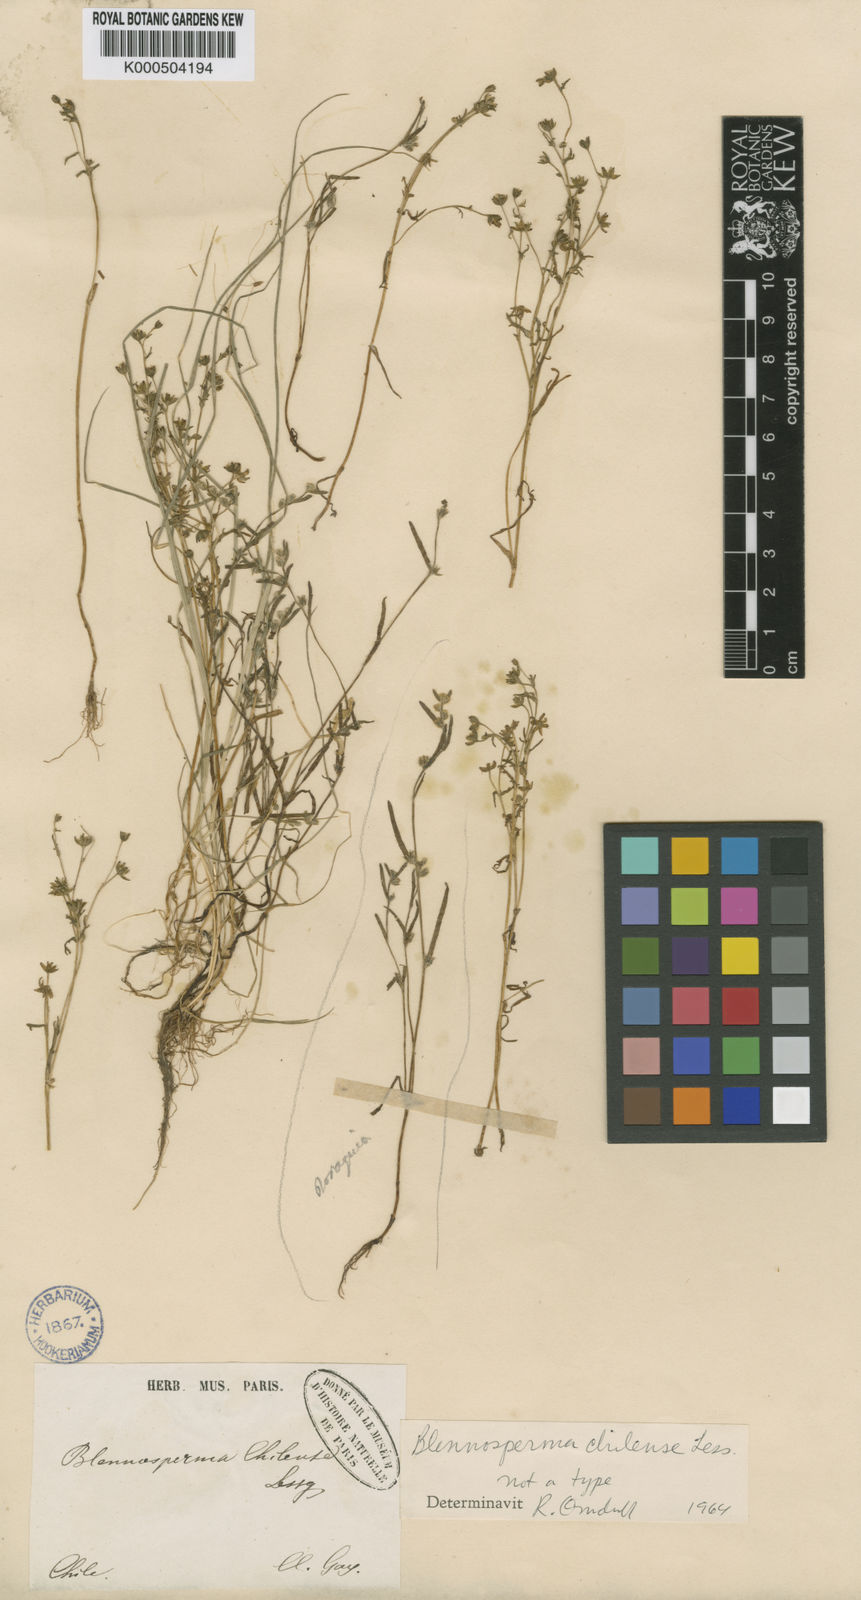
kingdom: Plantae
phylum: Tracheophyta
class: Magnoliopsida
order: Asterales
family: Asteraceae
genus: Blennosperma
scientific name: Blennosperma chilense
